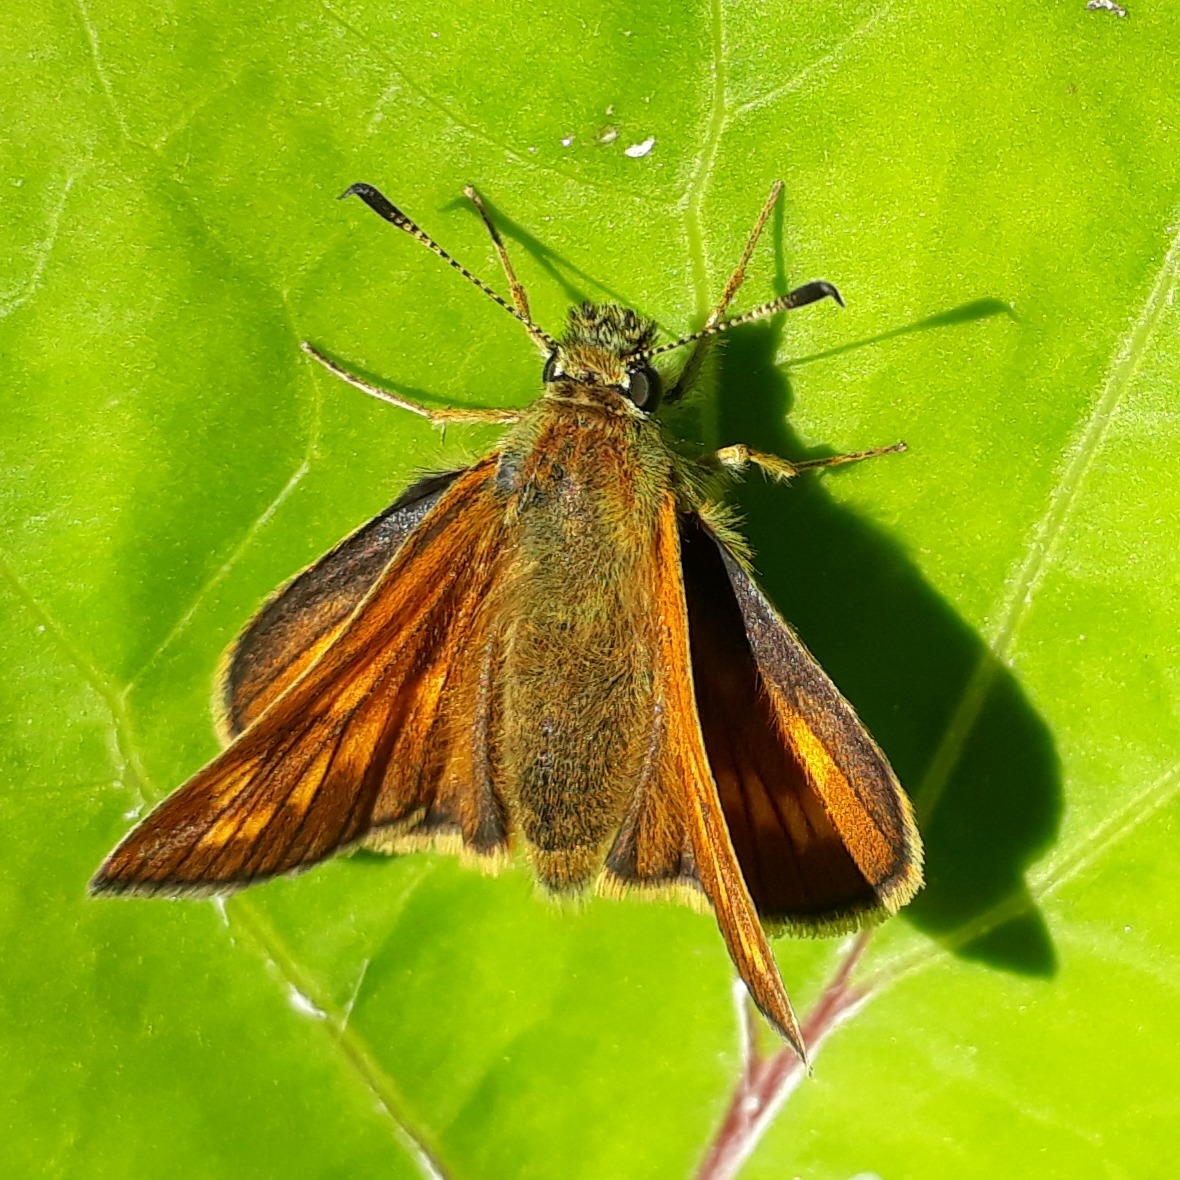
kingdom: Animalia
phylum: Arthropoda
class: Insecta
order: Lepidoptera
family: Hesperiidae
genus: Ochlodes
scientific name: Ochlodes venata
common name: Stor bredpande
